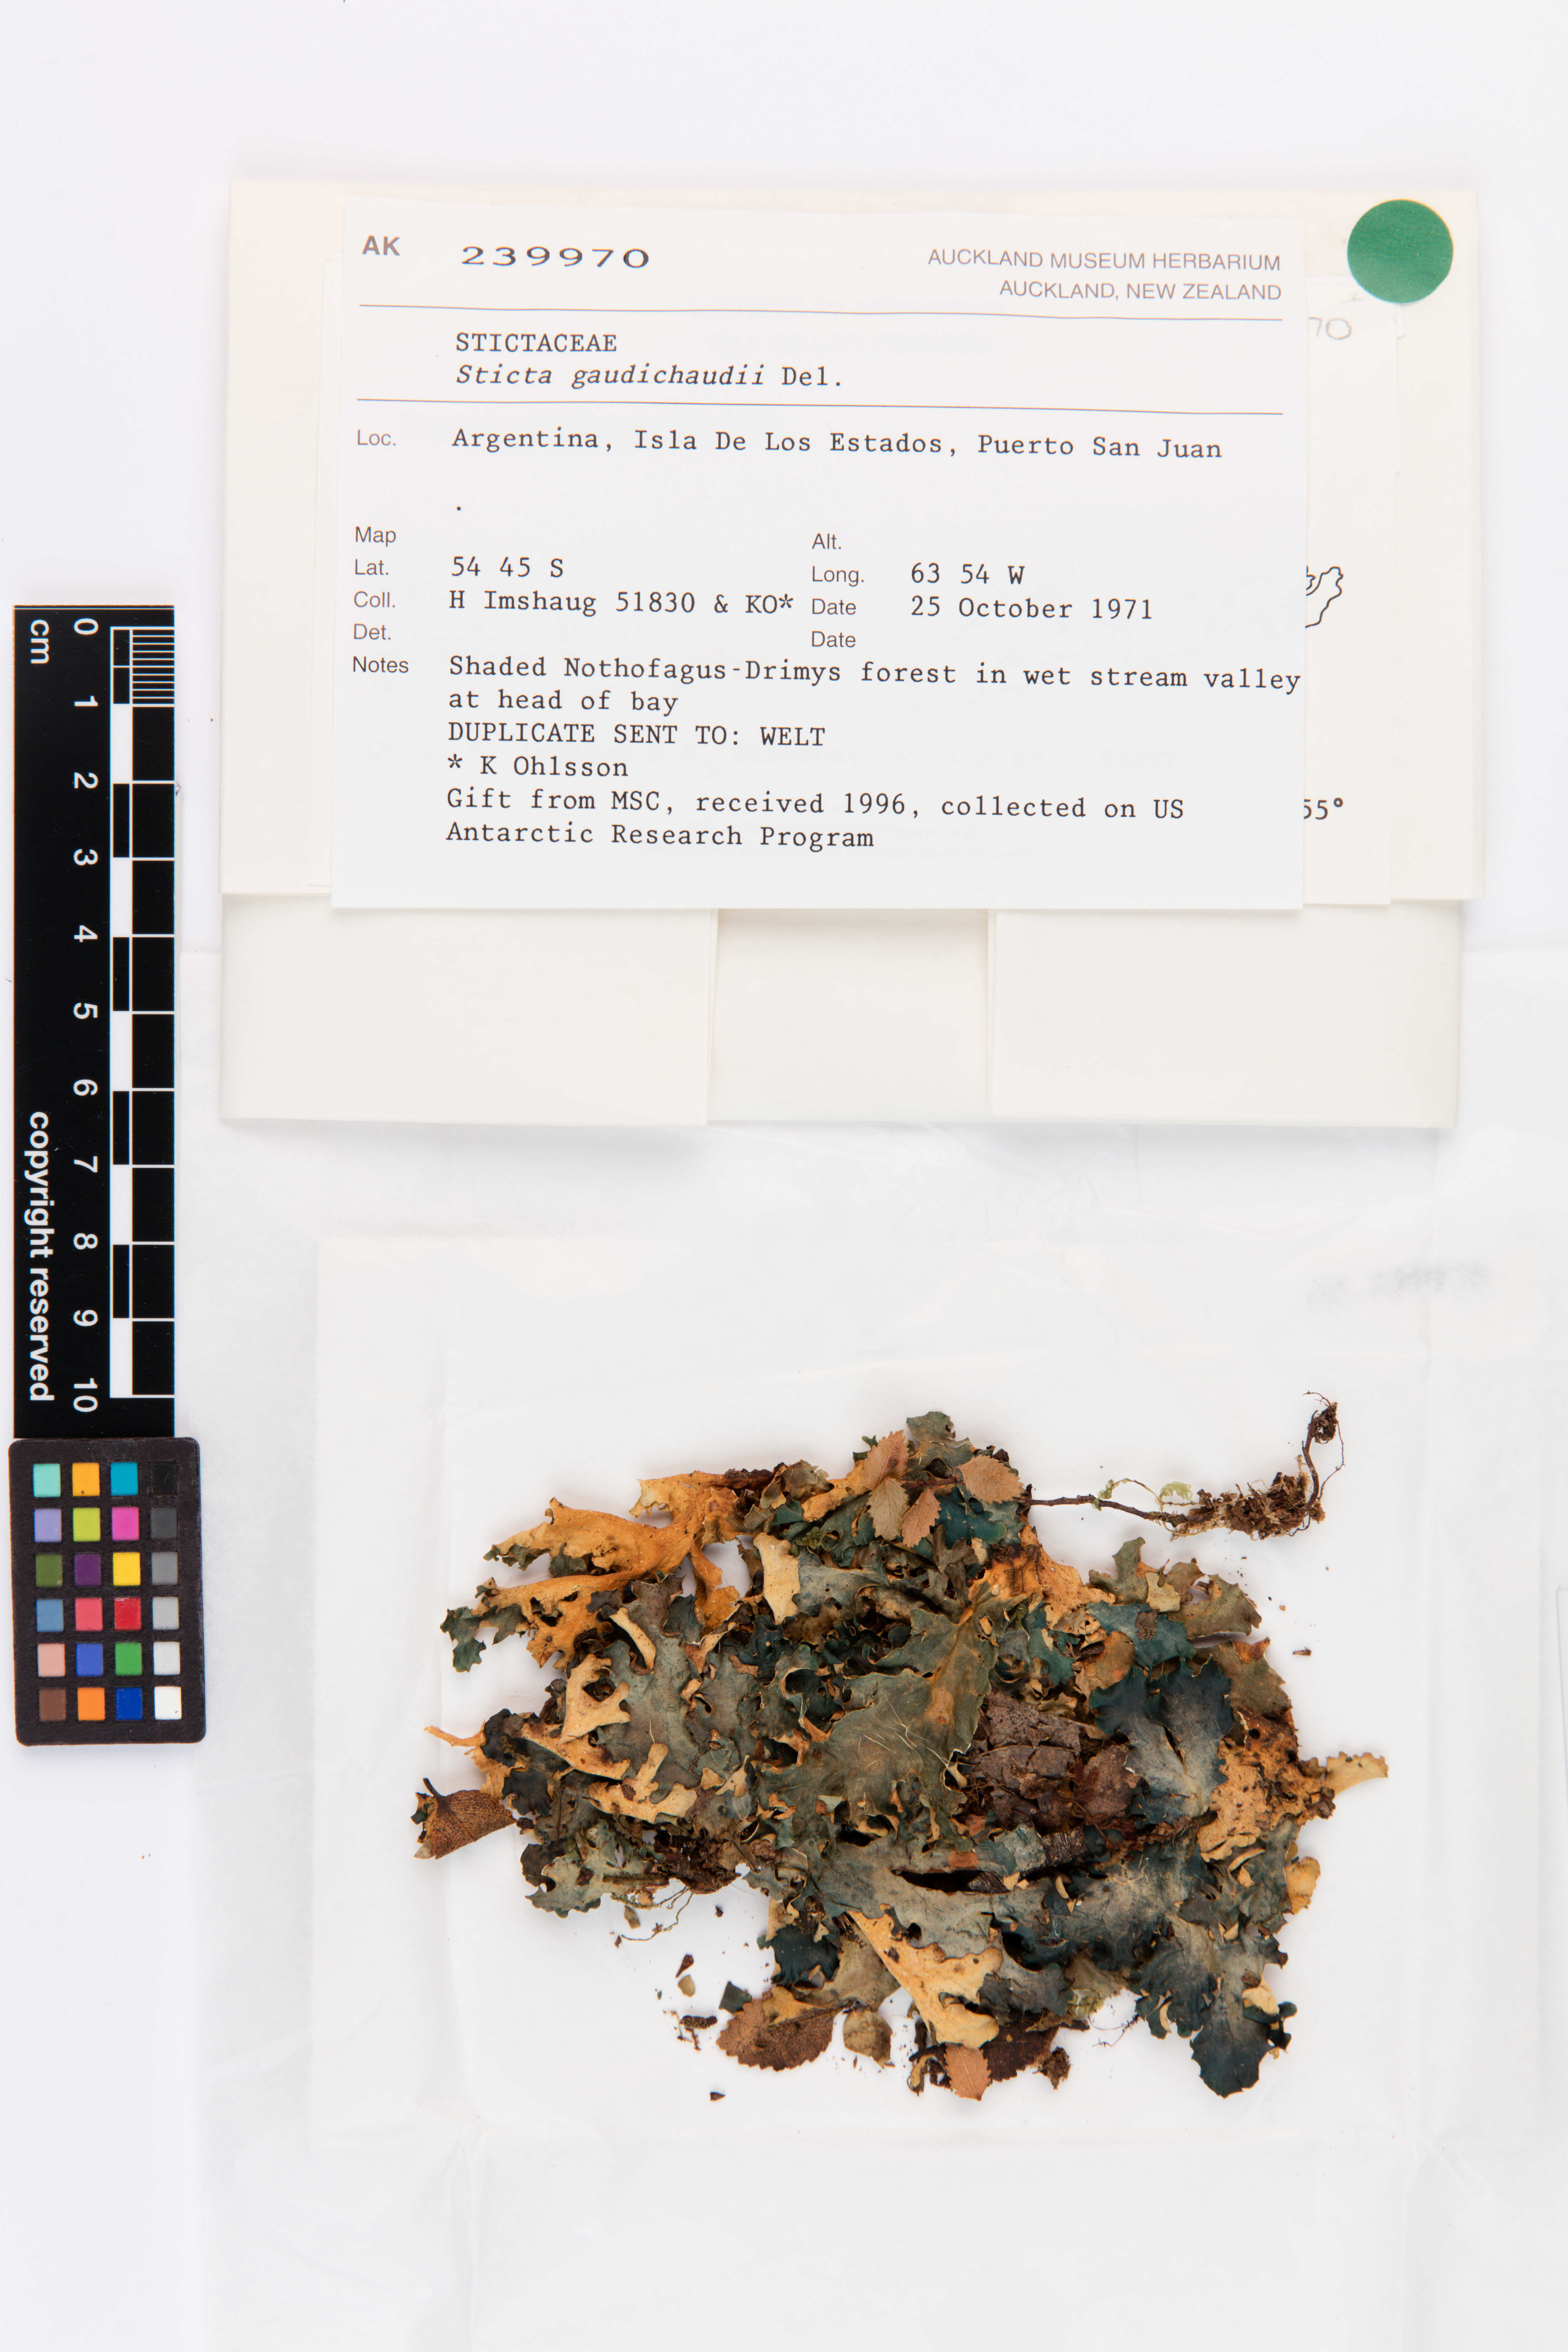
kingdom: Fungi
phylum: Ascomycota
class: Lecanoromycetes
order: Peltigerales
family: Lobariaceae
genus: Sticta
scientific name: Sticta gaudichaudii
